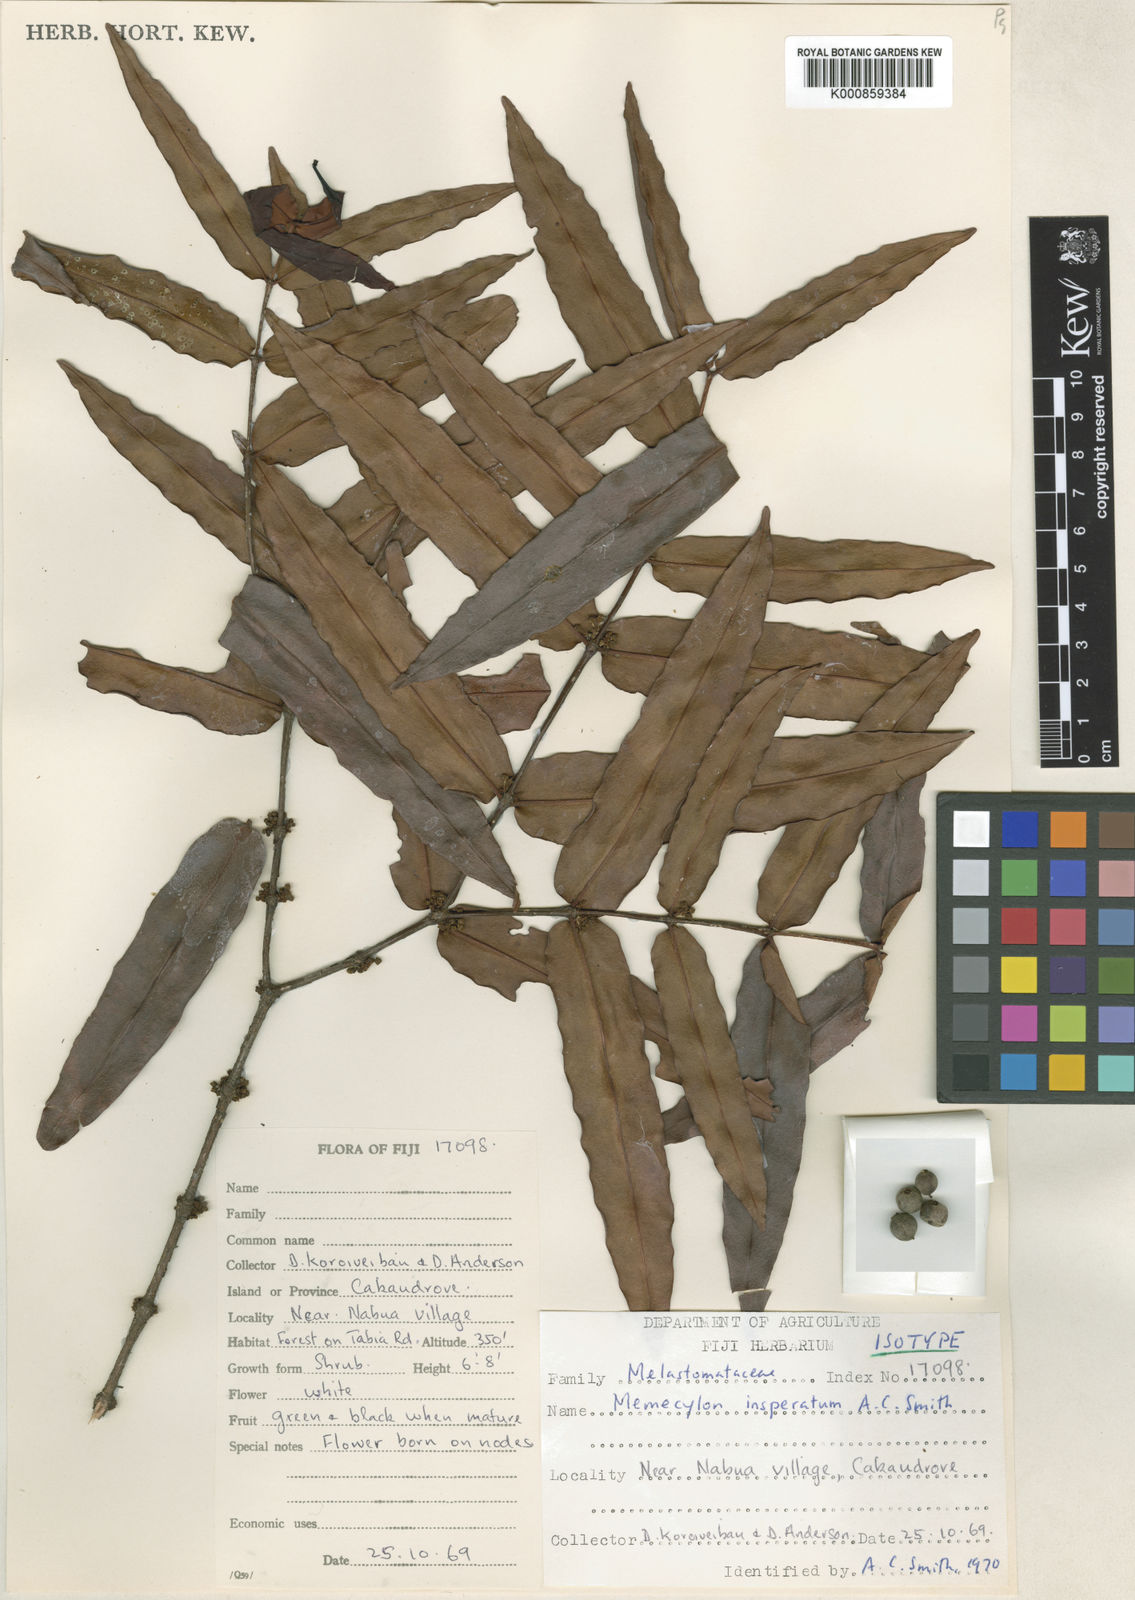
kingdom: Plantae
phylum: Tracheophyta
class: Magnoliopsida
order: Myrtales
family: Melastomataceae
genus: Memecylon
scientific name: Memecylon insperatum
